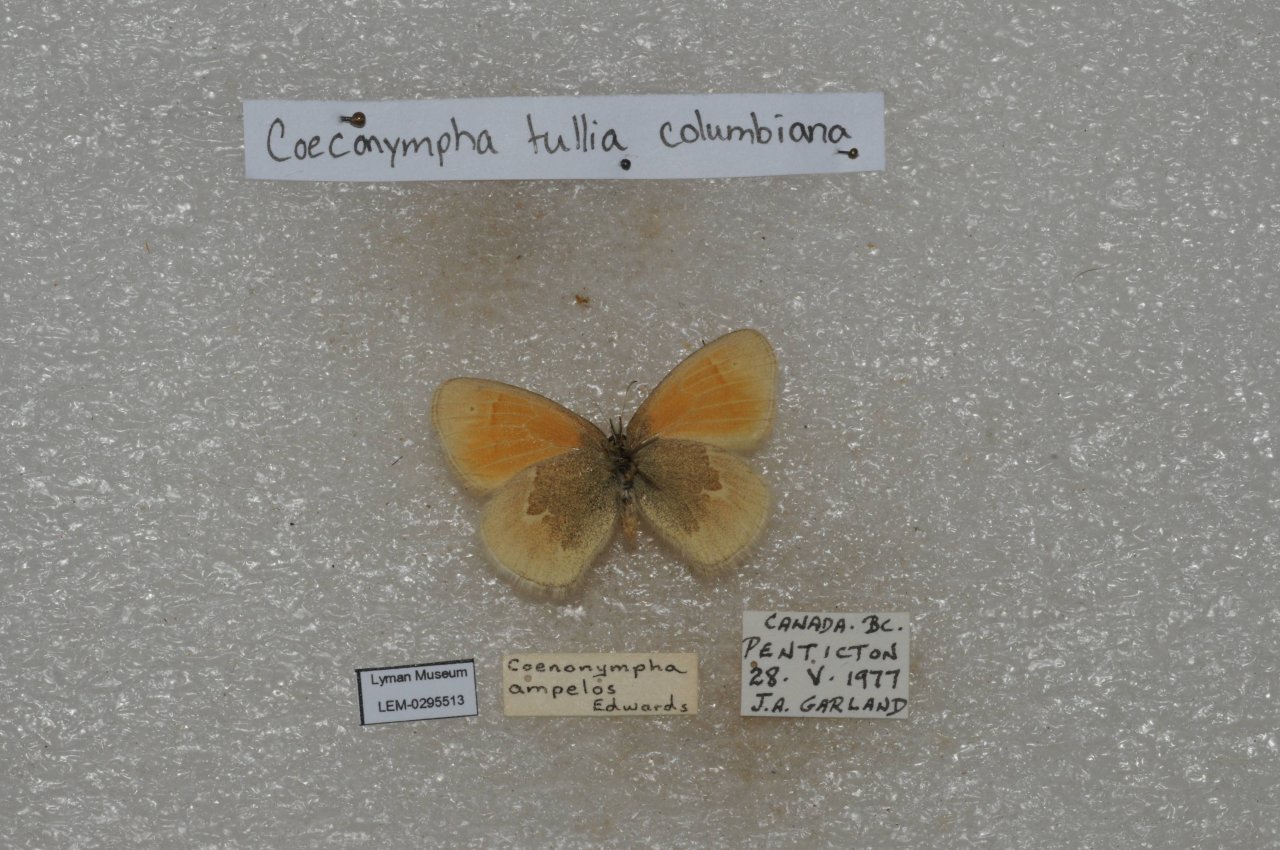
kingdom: Animalia
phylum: Arthropoda
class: Insecta
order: Lepidoptera
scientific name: Lepidoptera
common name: Butterflies
